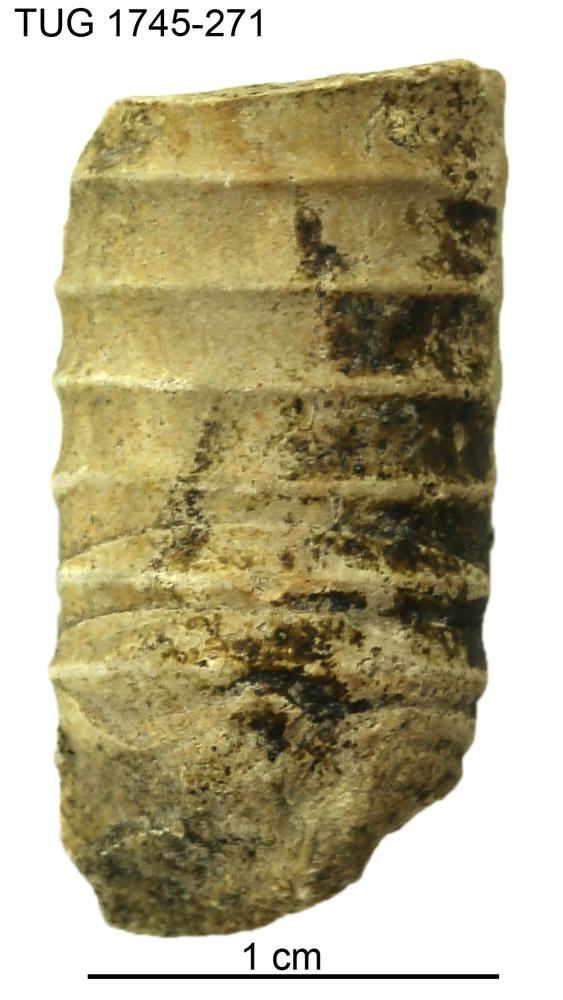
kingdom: Animalia
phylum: Mollusca
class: Cephalopoda
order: Orthocerida
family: Dawsonoceratidae
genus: Palaeodawsonocerina
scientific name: Palaeodawsonocerina Spyroceras senckenbergi
